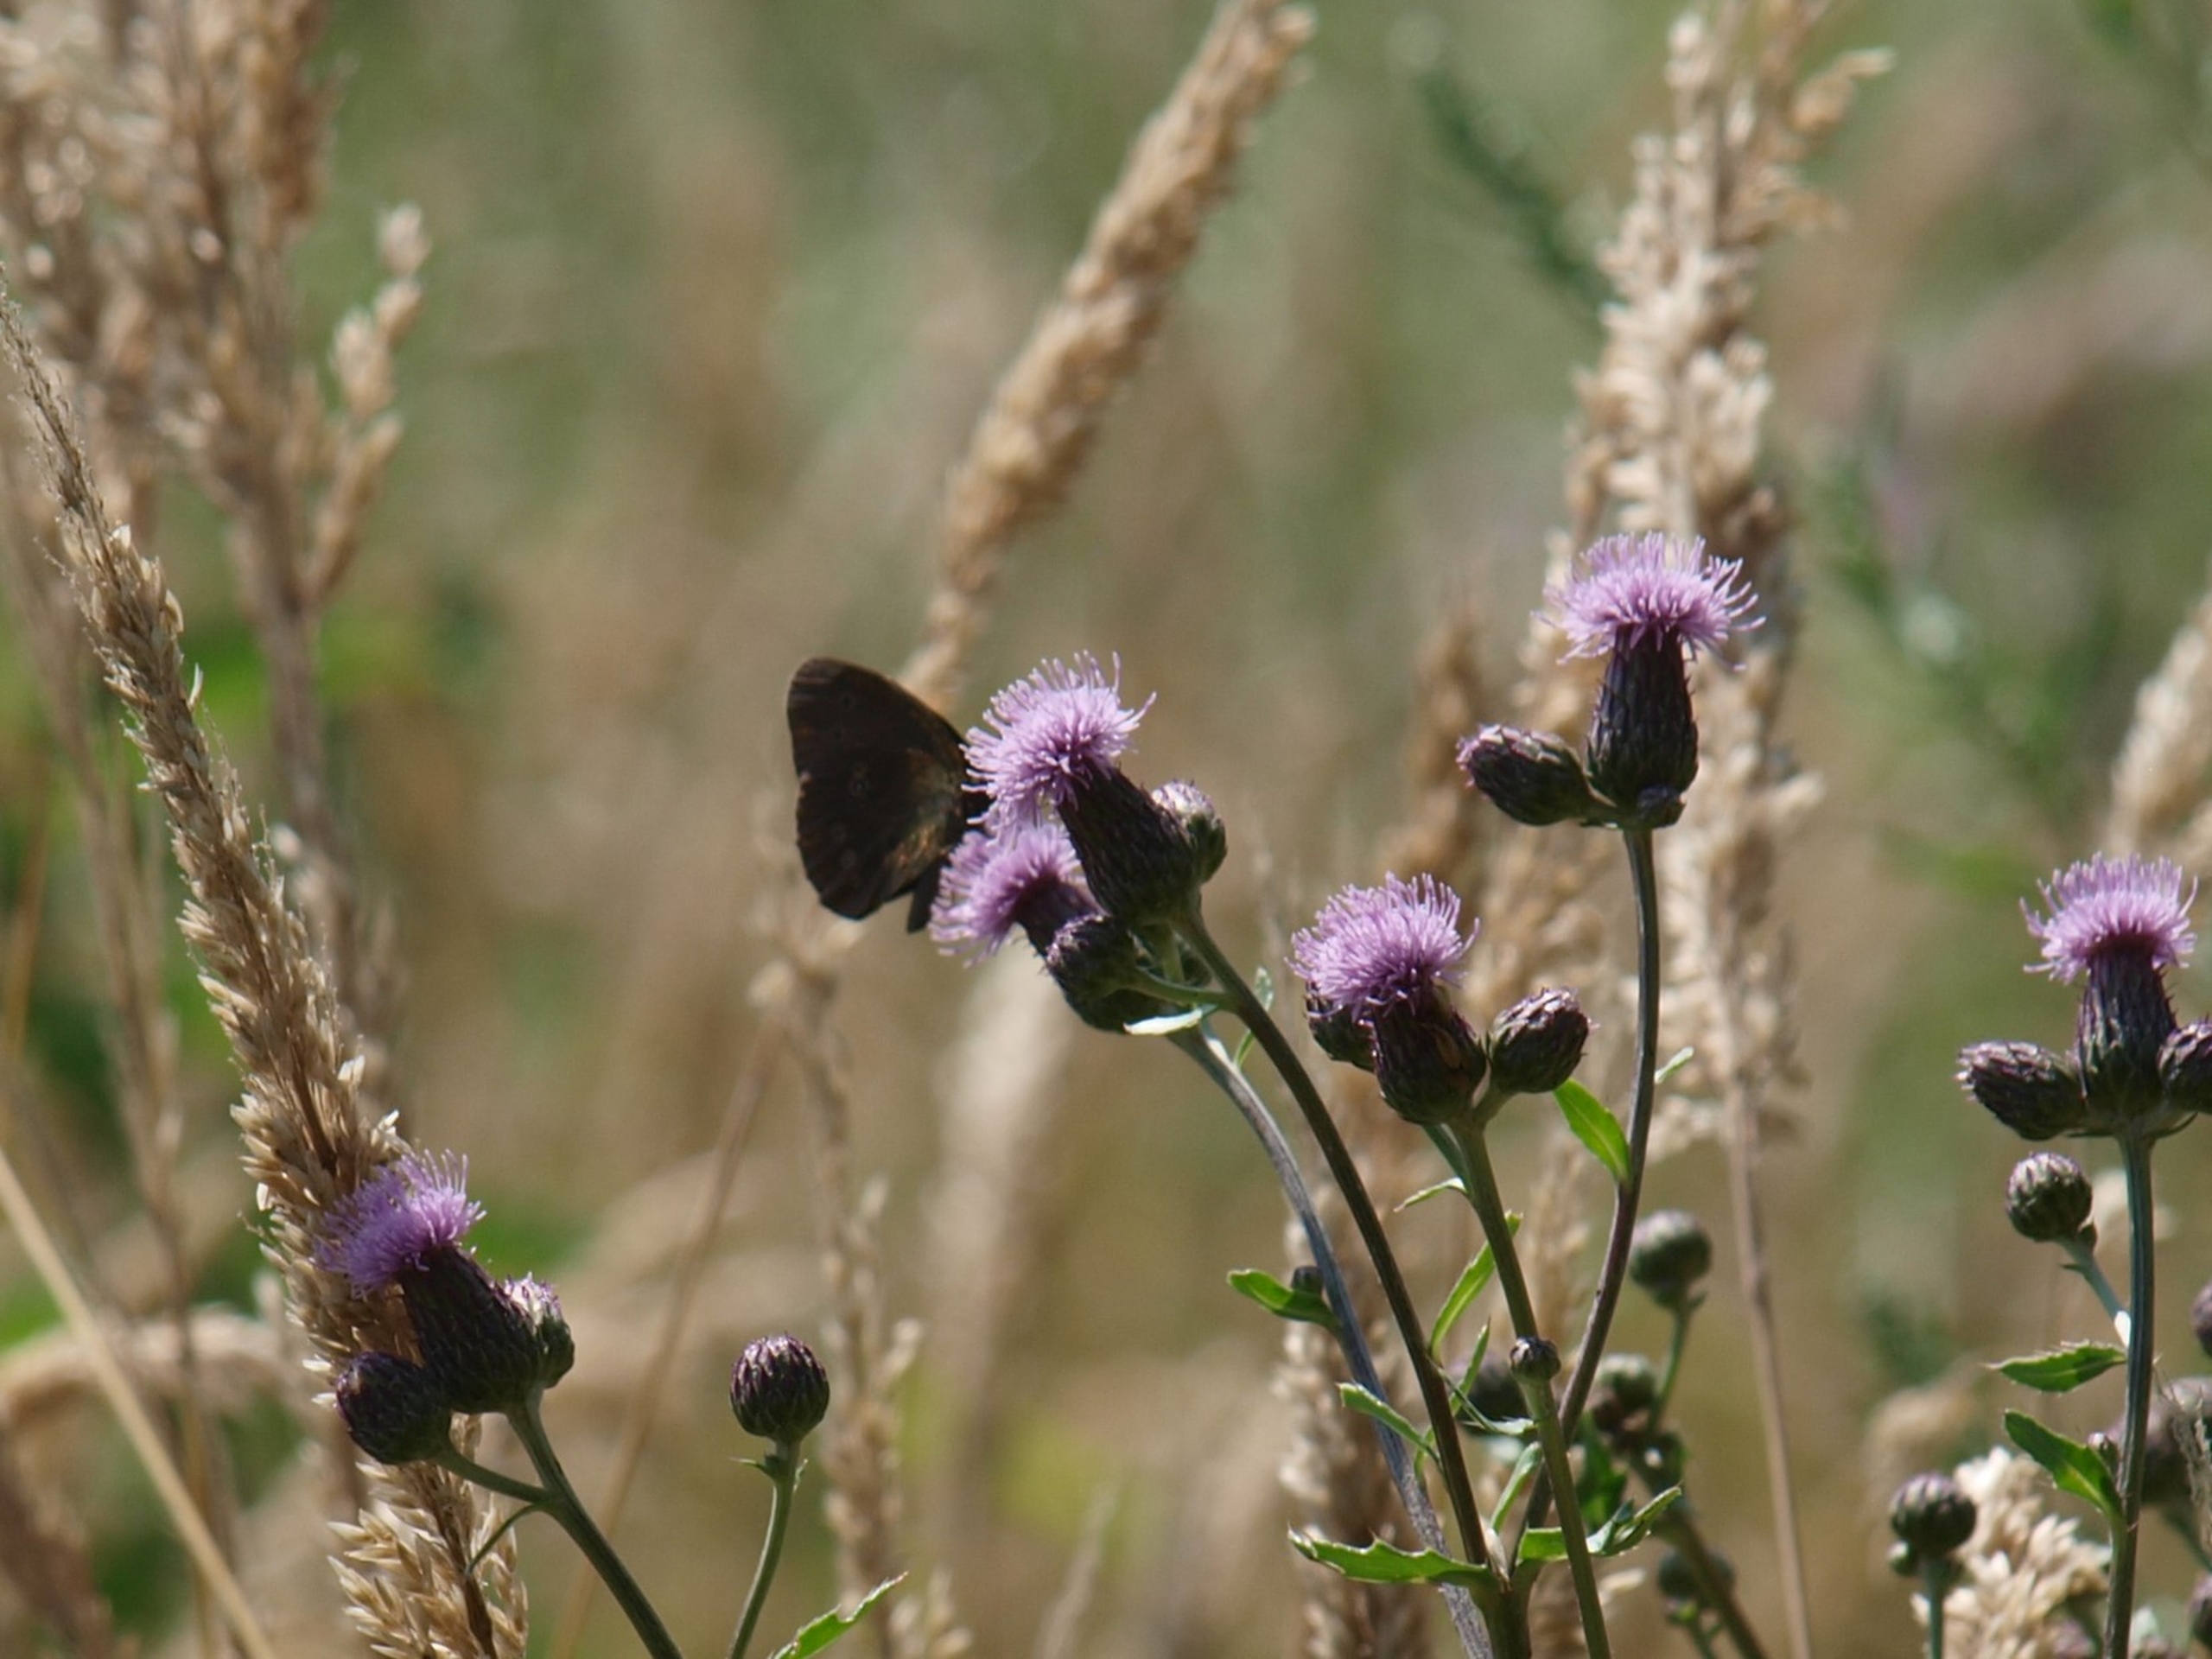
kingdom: Animalia
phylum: Arthropoda
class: Insecta
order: Lepidoptera
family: Nymphalidae
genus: Aphantopus
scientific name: Aphantopus hyperantus
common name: Engrandøje
